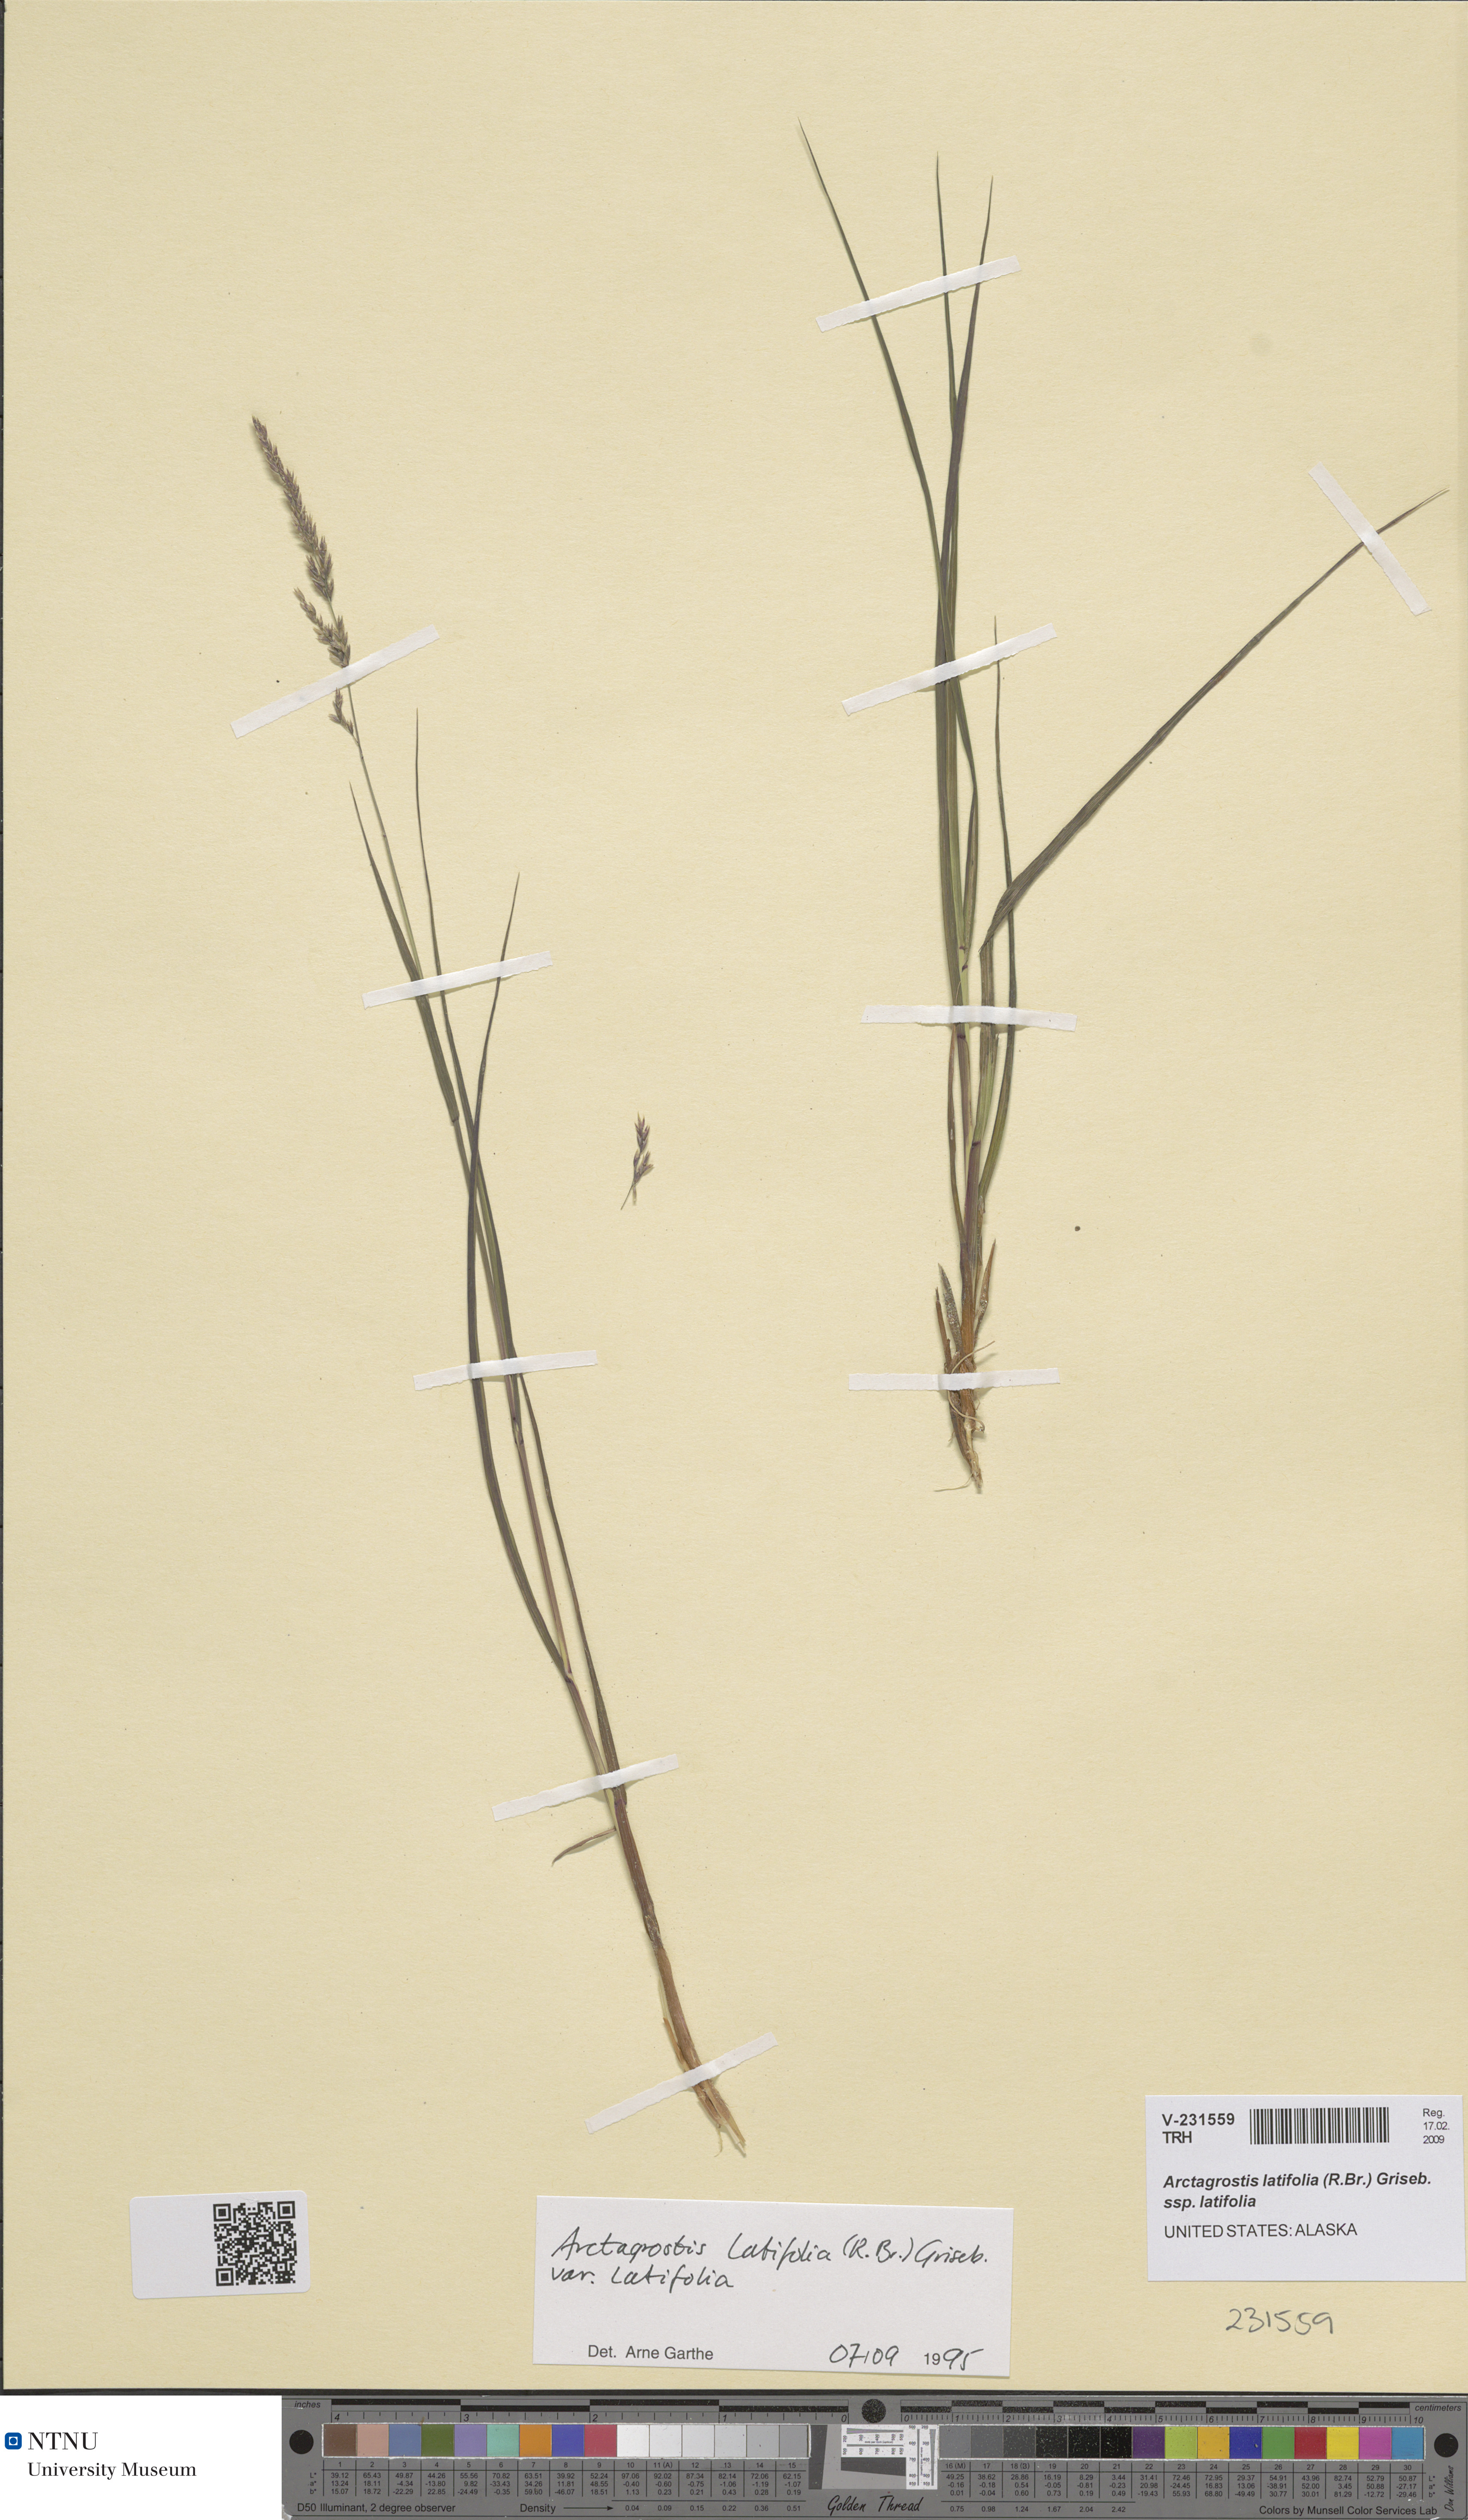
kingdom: Plantae
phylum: Tracheophyta
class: Liliopsida
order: Poales
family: Poaceae
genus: Arctagrostis
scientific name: Arctagrostis latifolia
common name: Arctic grass
